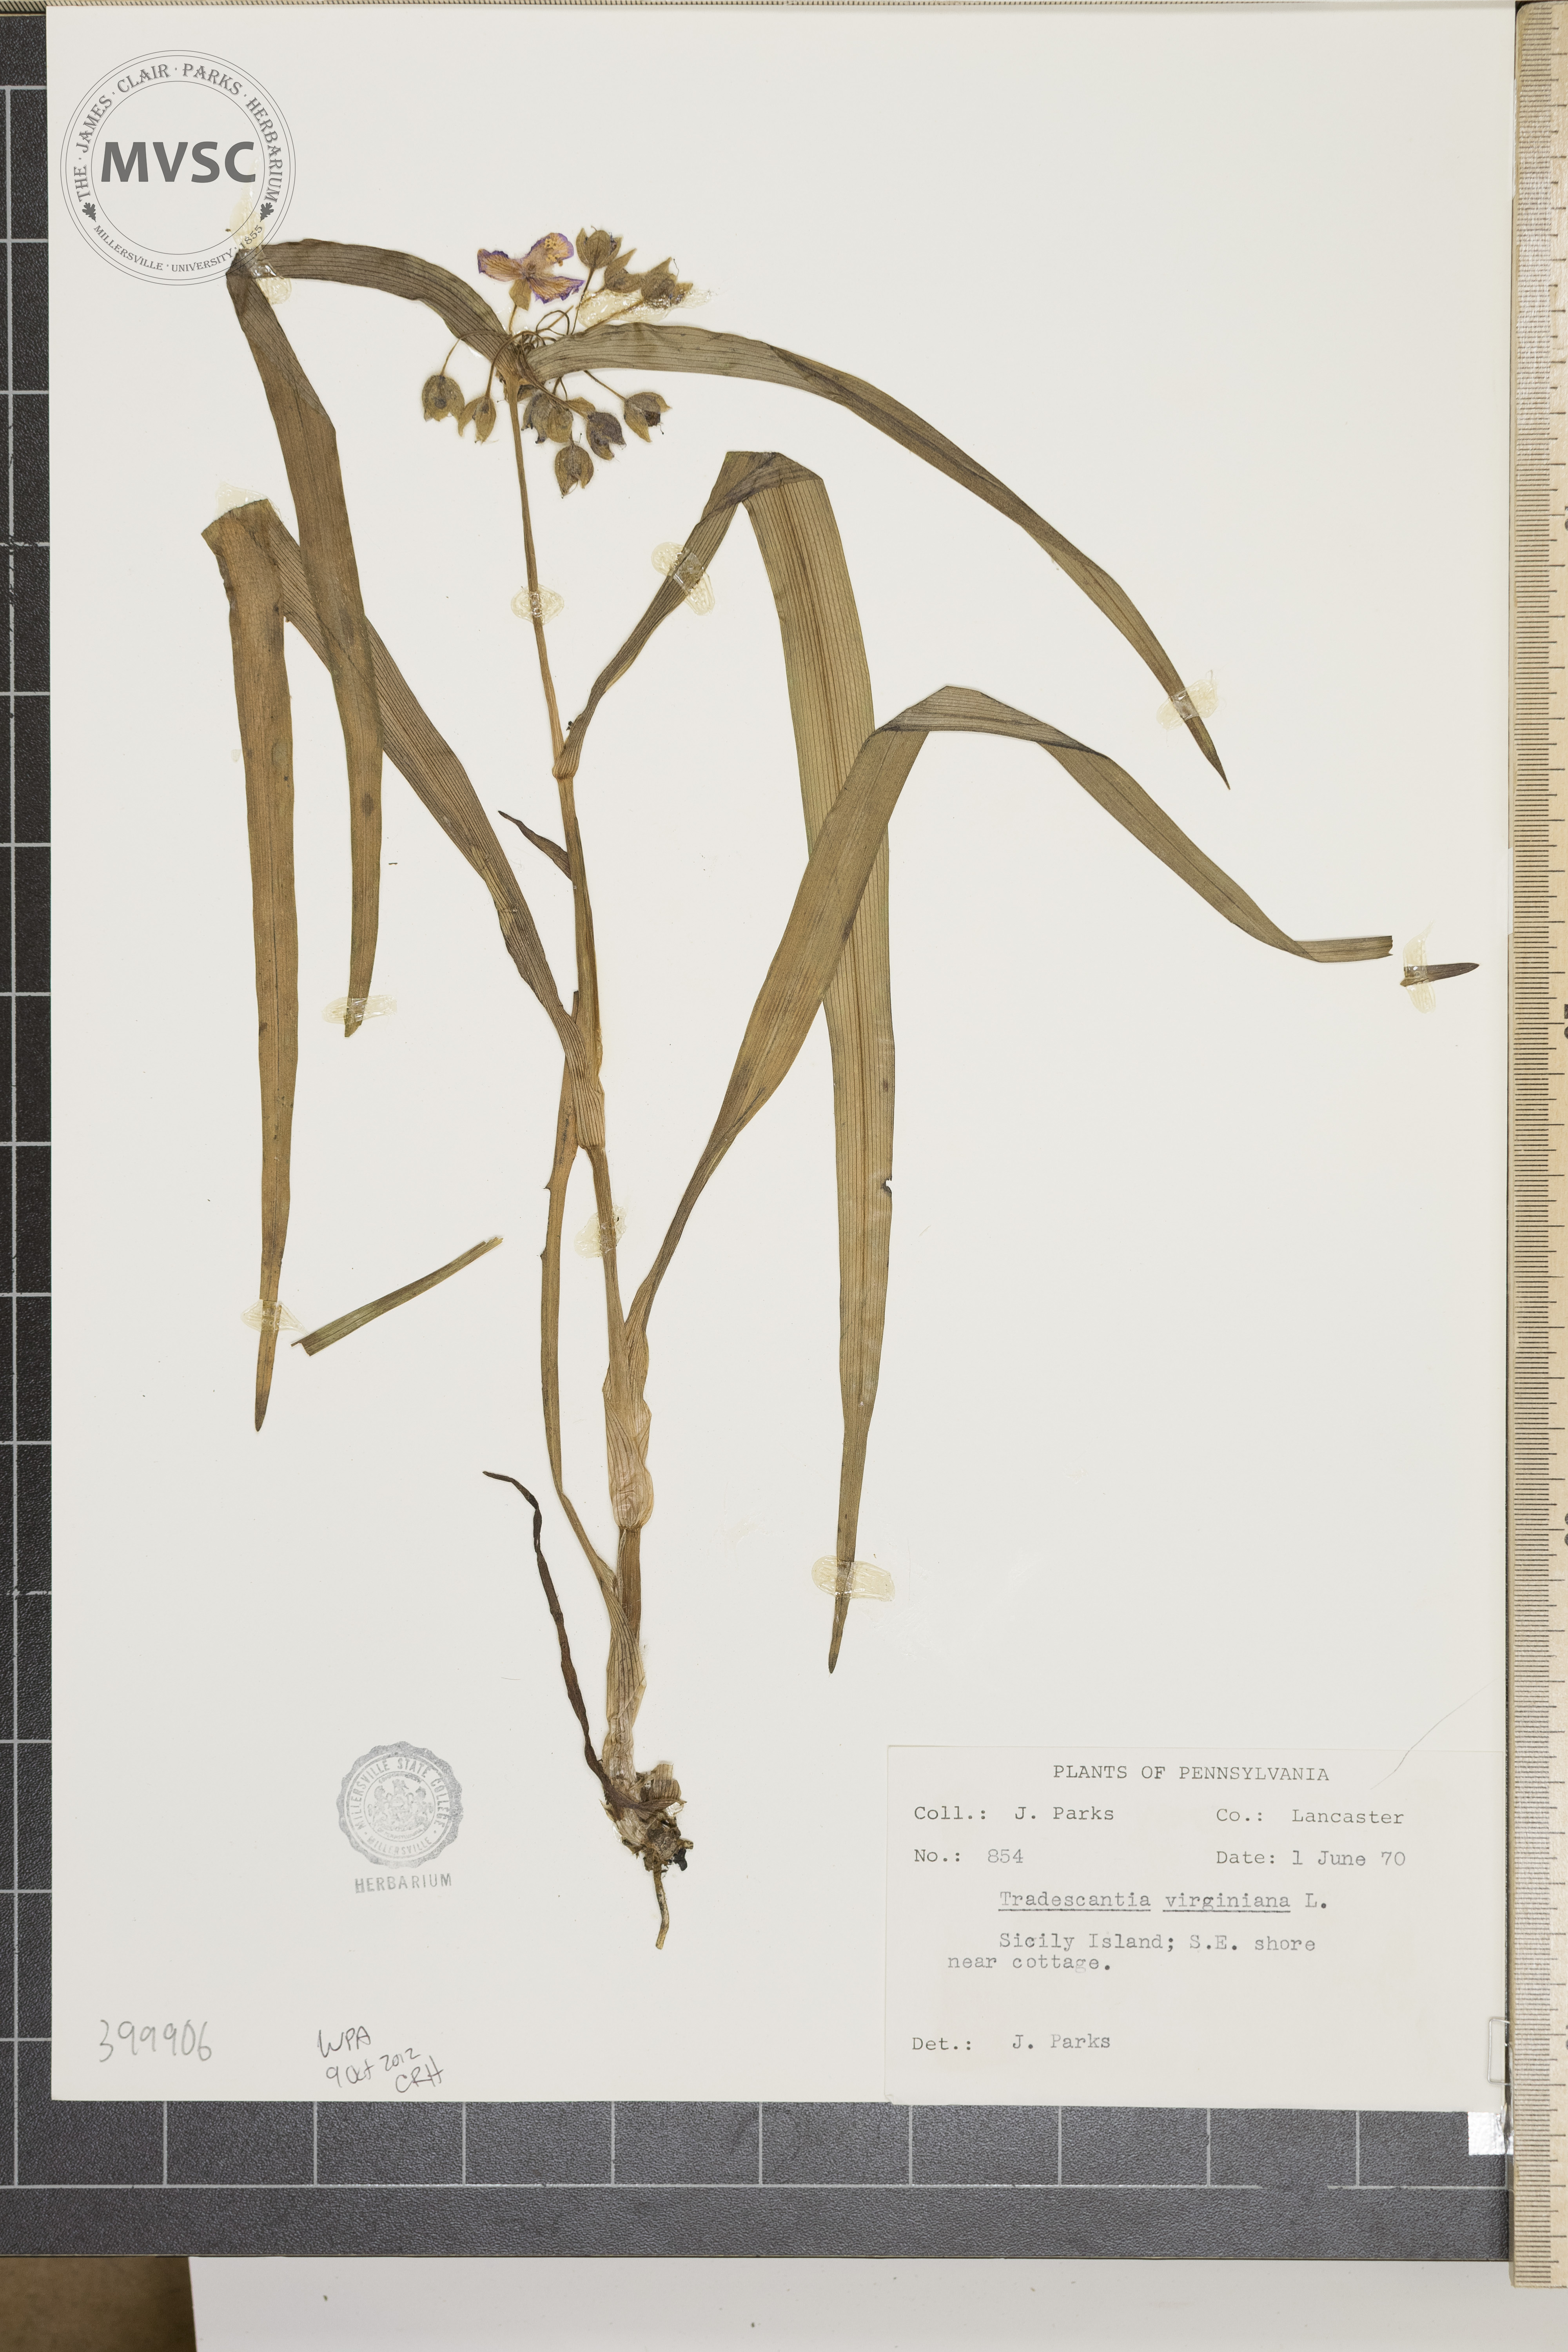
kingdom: Plantae
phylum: Tracheophyta
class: Liliopsida
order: Commelinales
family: Commelinaceae
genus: Tradescantia
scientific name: Tradescantia virginiana
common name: Virginia spiderwort
